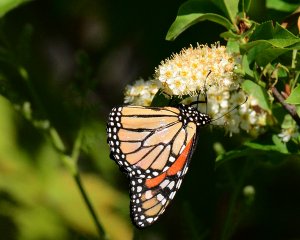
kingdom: Animalia
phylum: Arthropoda
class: Insecta
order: Lepidoptera
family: Nymphalidae
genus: Danaus
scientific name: Danaus plexippus
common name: Monarch
